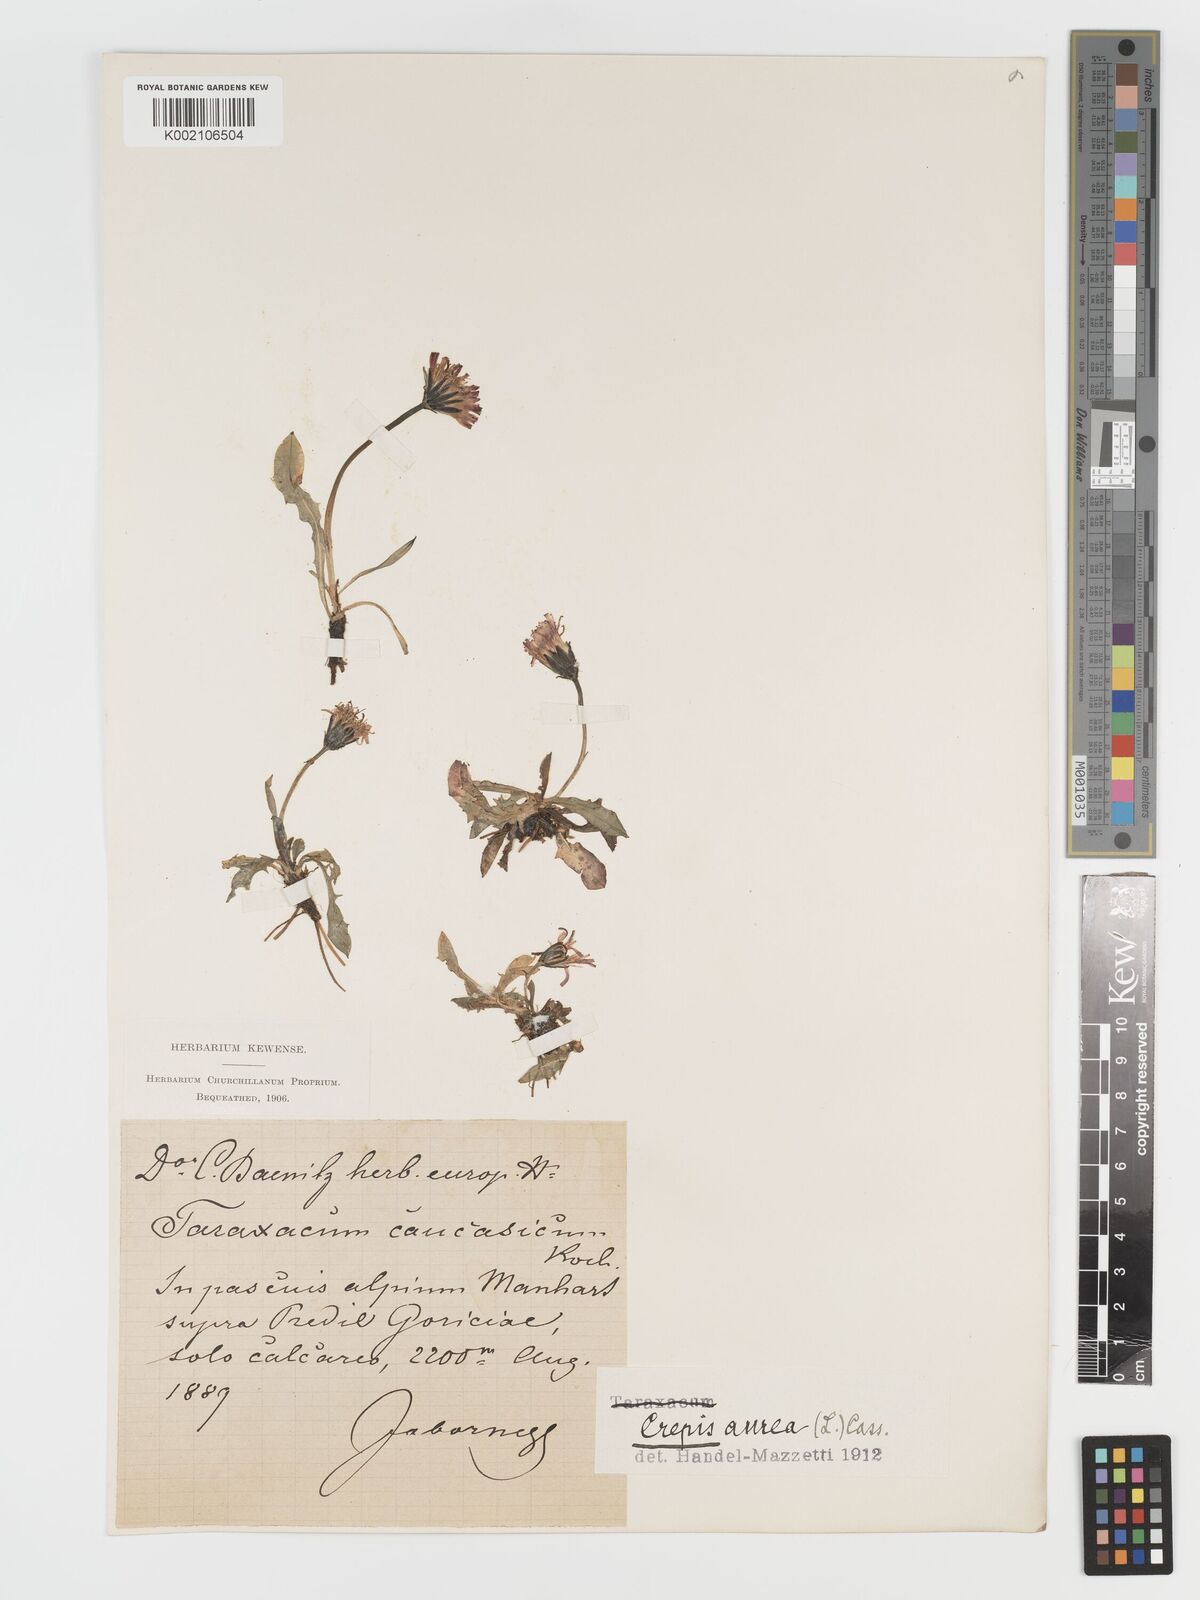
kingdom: Plantae
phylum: Tracheophyta
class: Magnoliopsida
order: Asterales
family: Asteraceae
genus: Crepis
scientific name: Crepis aurea
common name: Golden hawk's-beard
